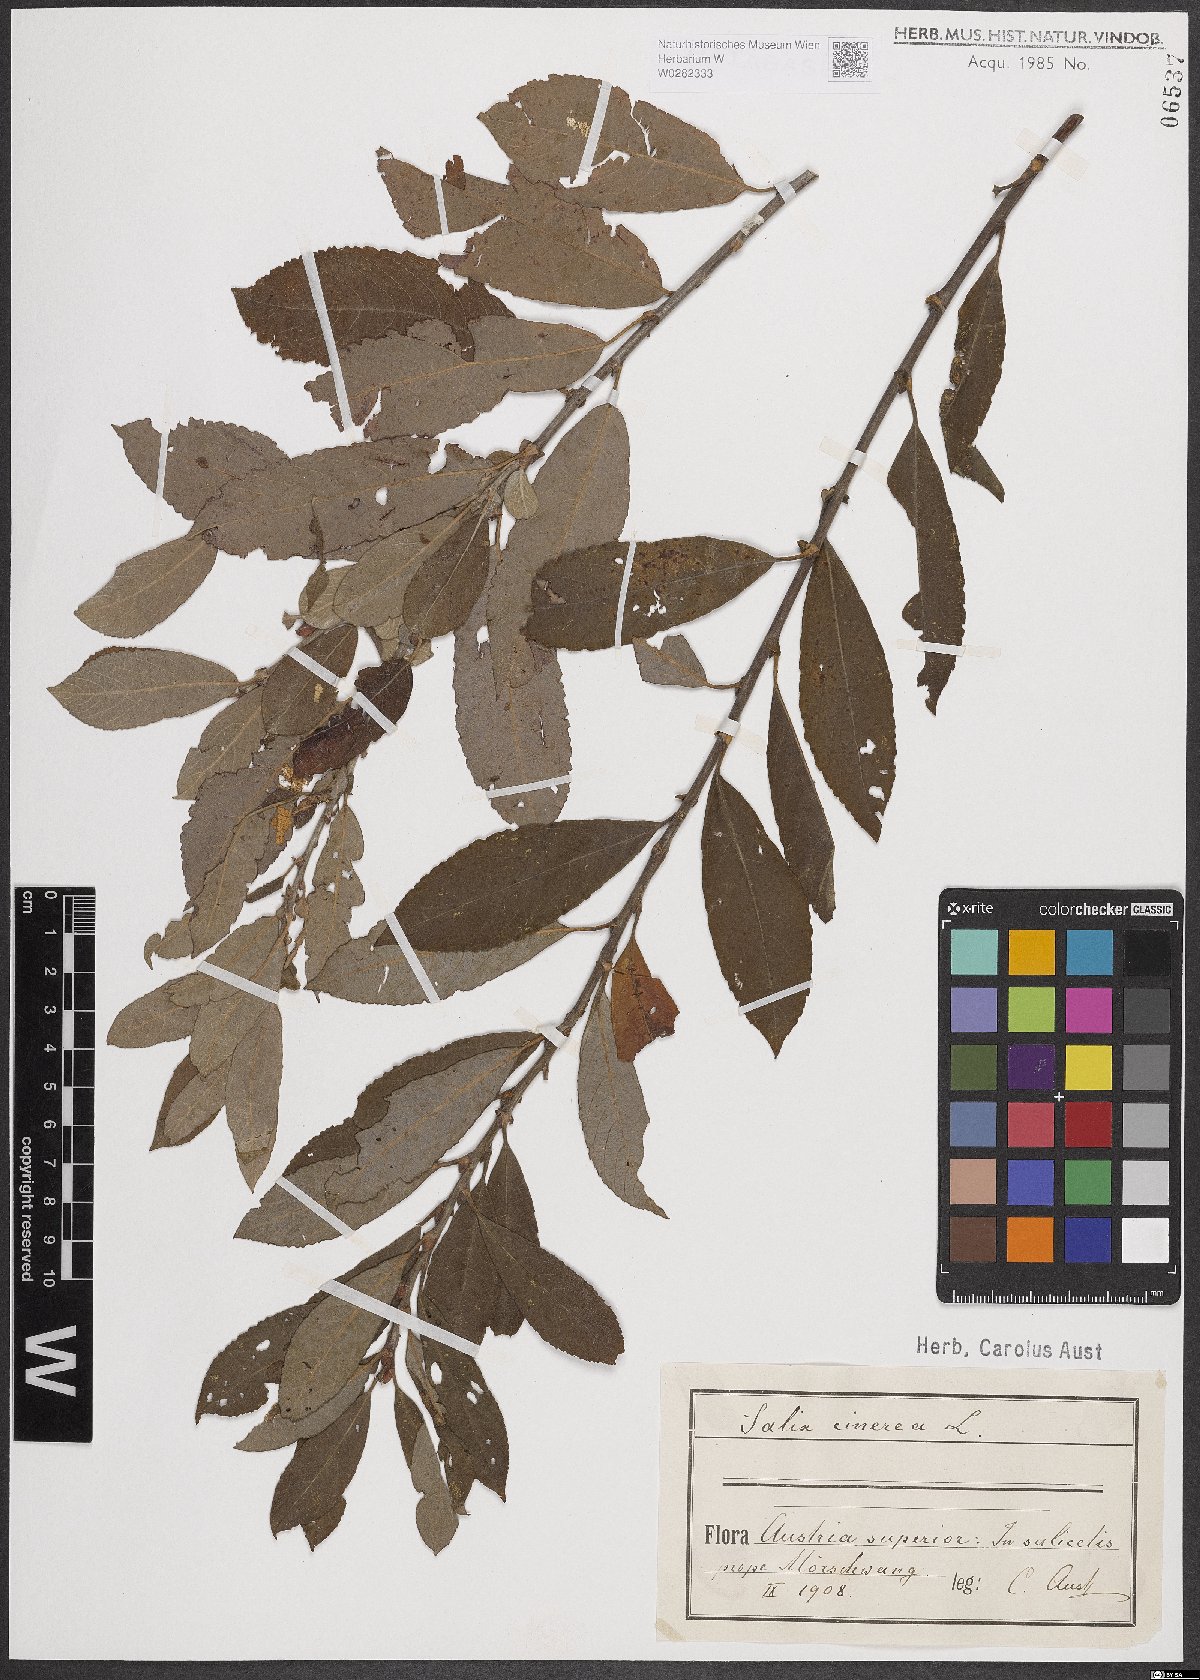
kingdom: Plantae
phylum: Tracheophyta
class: Magnoliopsida
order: Malpighiales
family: Salicaceae
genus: Salix
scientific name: Salix cinerea
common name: Common sallow
